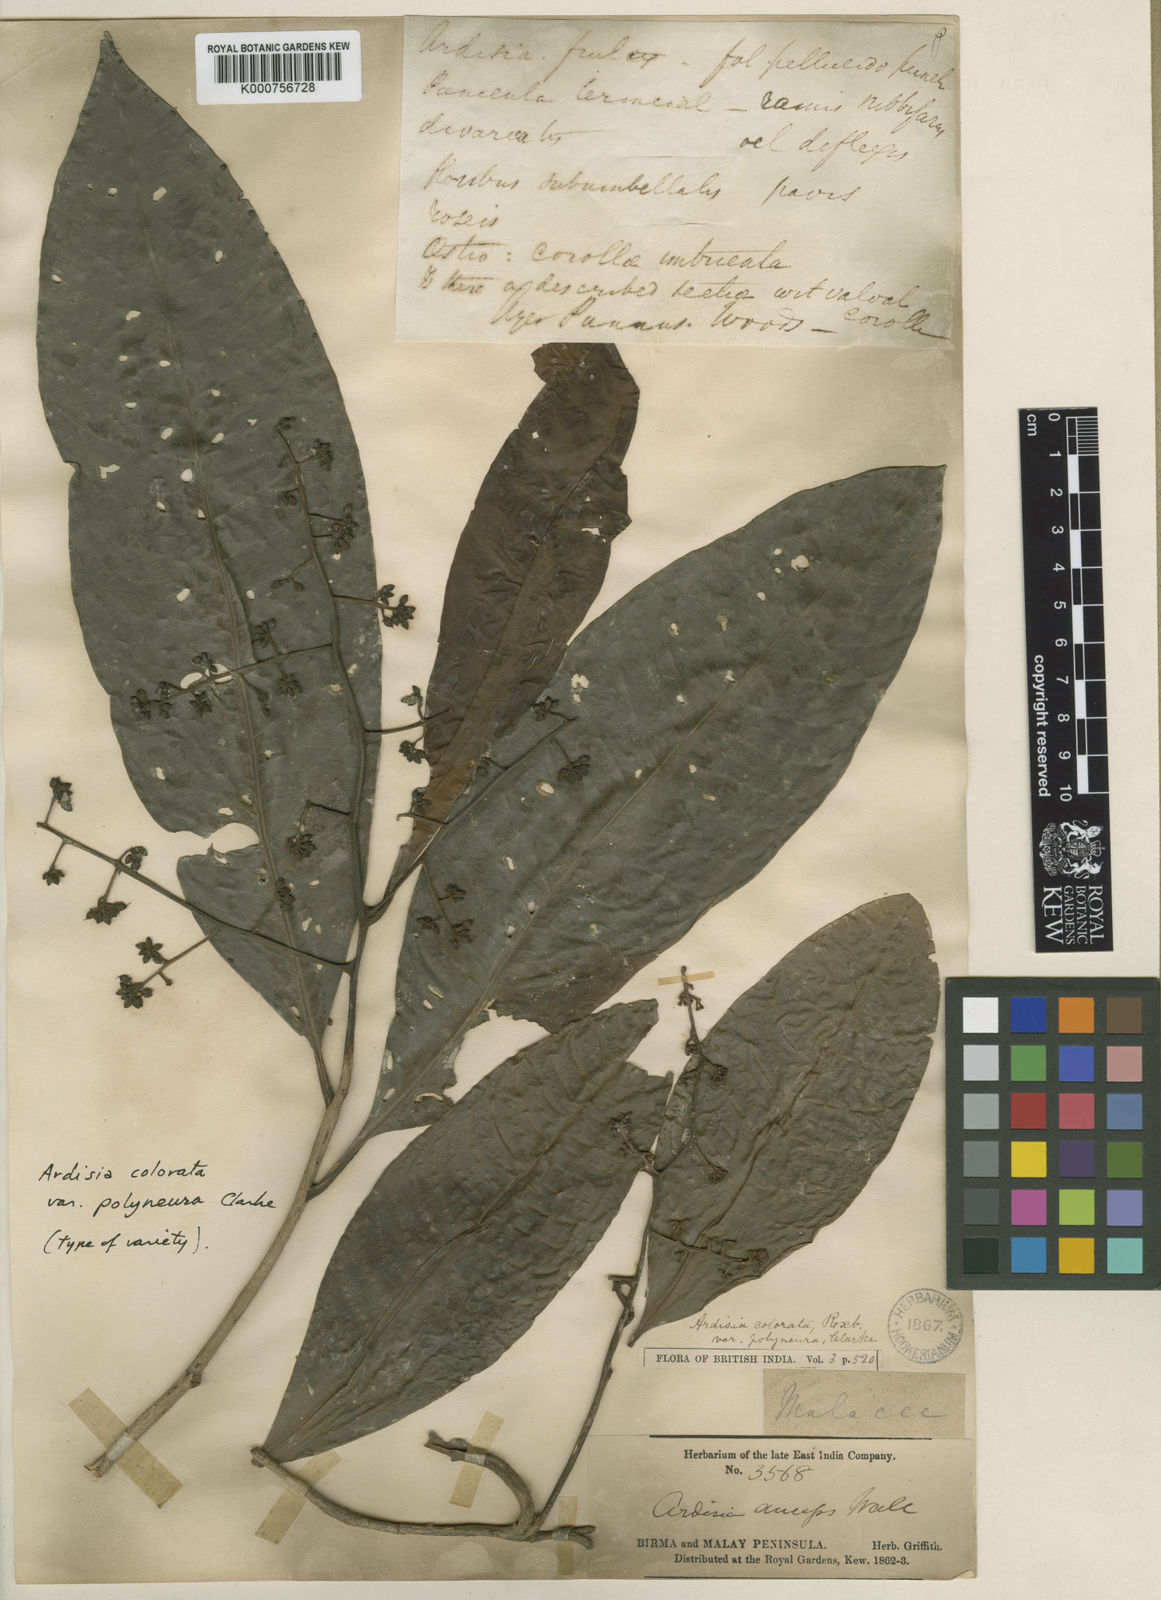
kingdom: Plantae
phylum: Tracheophyta
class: Magnoliopsida
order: Ericales
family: Primulaceae
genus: Ardisia
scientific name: Ardisia complanata
